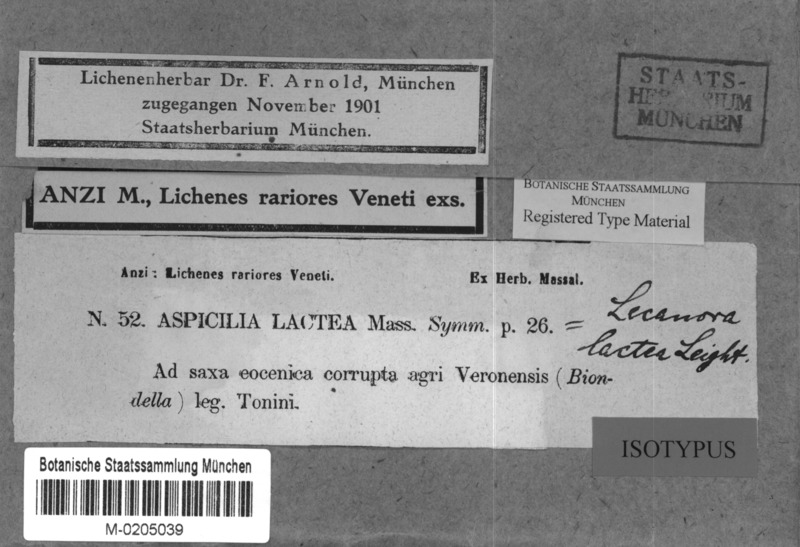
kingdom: Fungi
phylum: Ascomycota
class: Lecanoromycetes
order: Lecanorales
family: Lecanoraceae
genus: Lecanora
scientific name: Lecanora lactea
